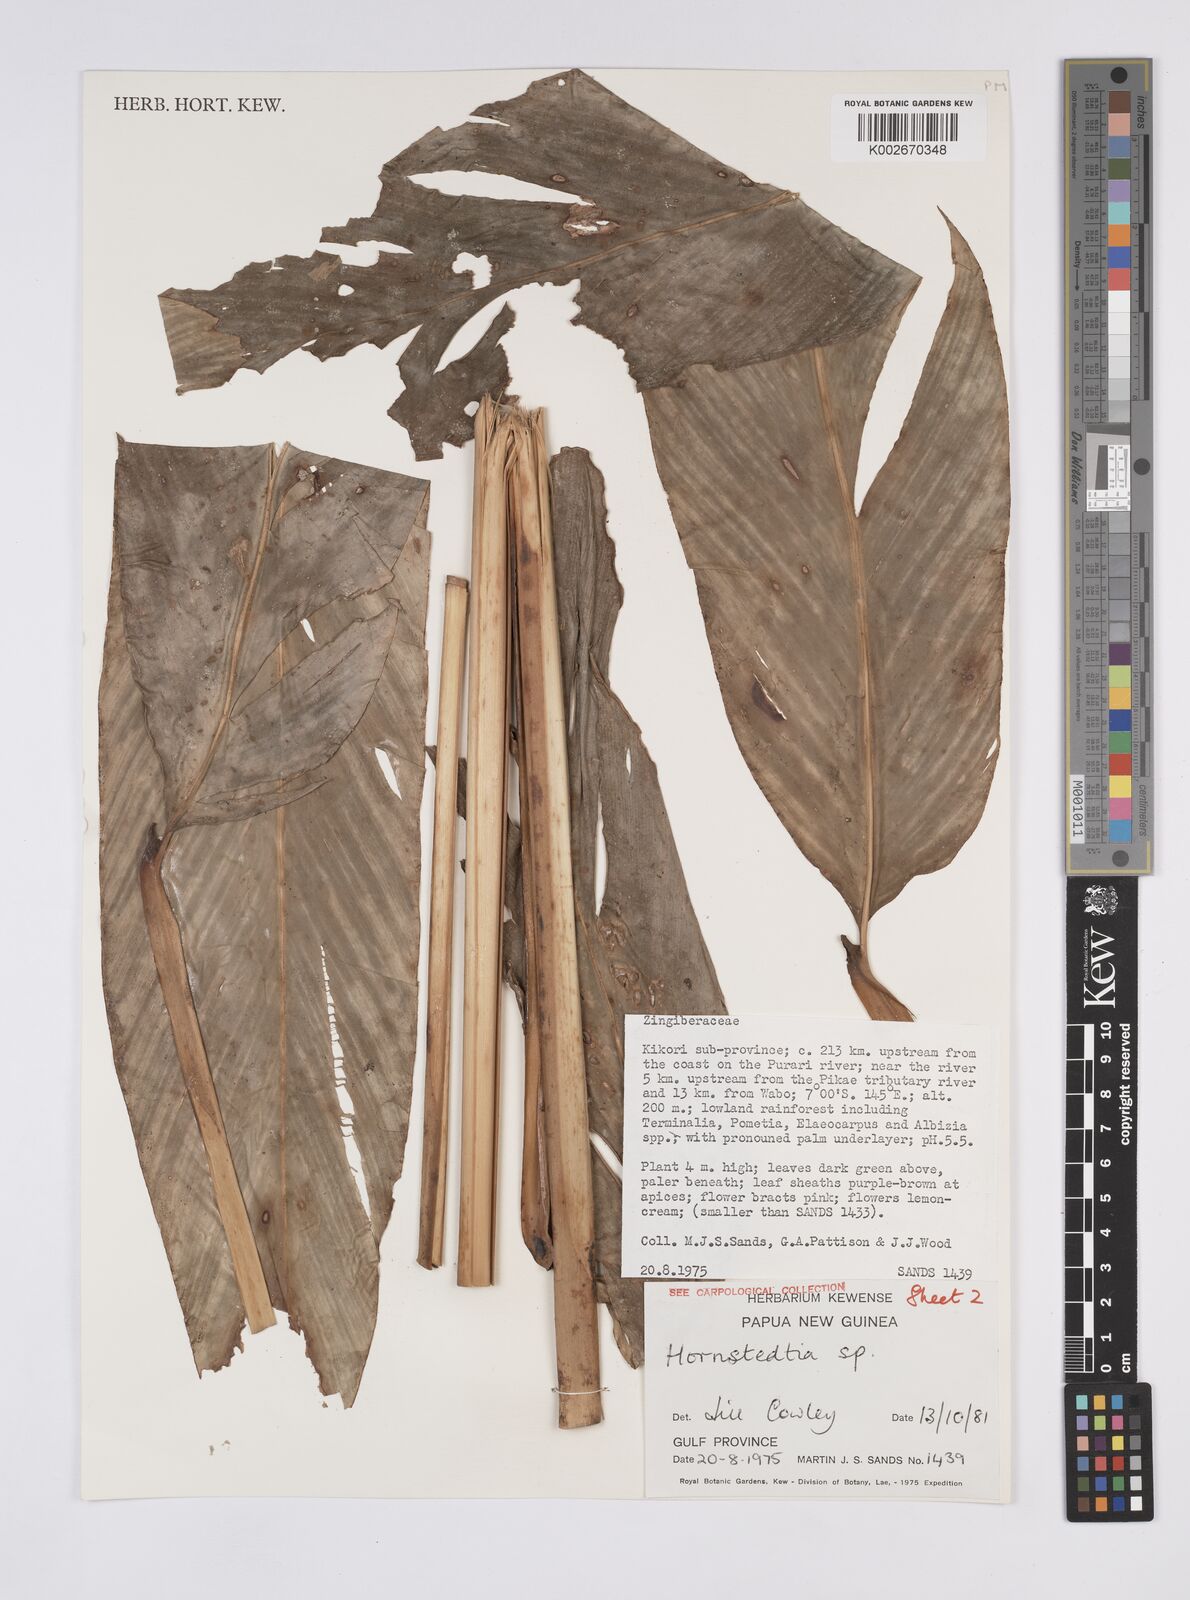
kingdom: Plantae
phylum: Tracheophyta
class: Liliopsida
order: Zingiberales
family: Zingiberaceae
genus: Hornstedtia
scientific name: Hornstedtia
